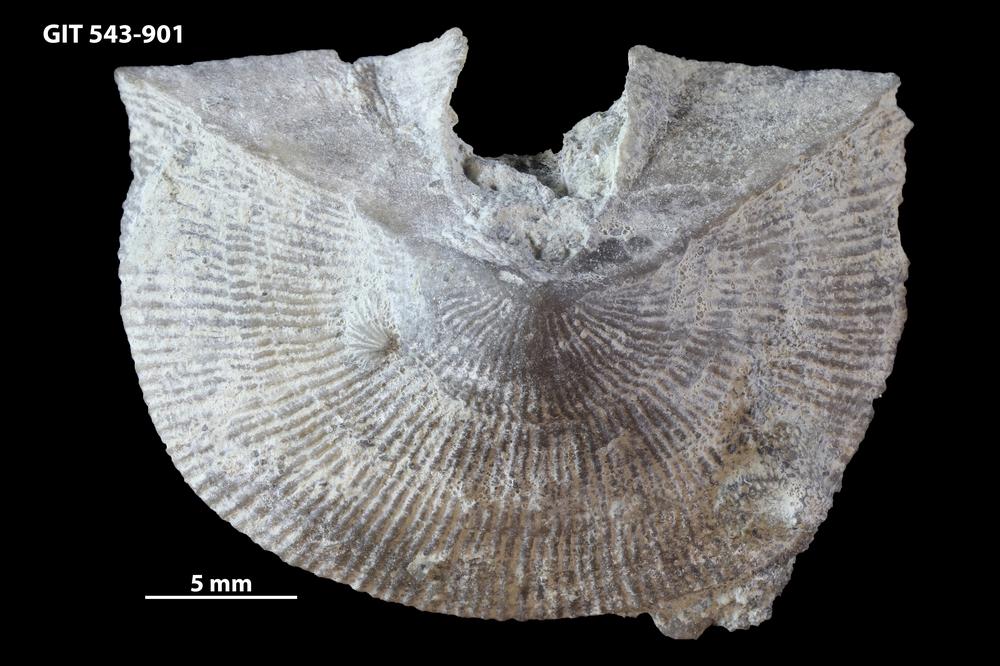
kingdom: Animalia
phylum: Brachiopoda
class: Rhynchonellata
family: Clitambonitidae
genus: Ilmarinia
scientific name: Ilmarinia
